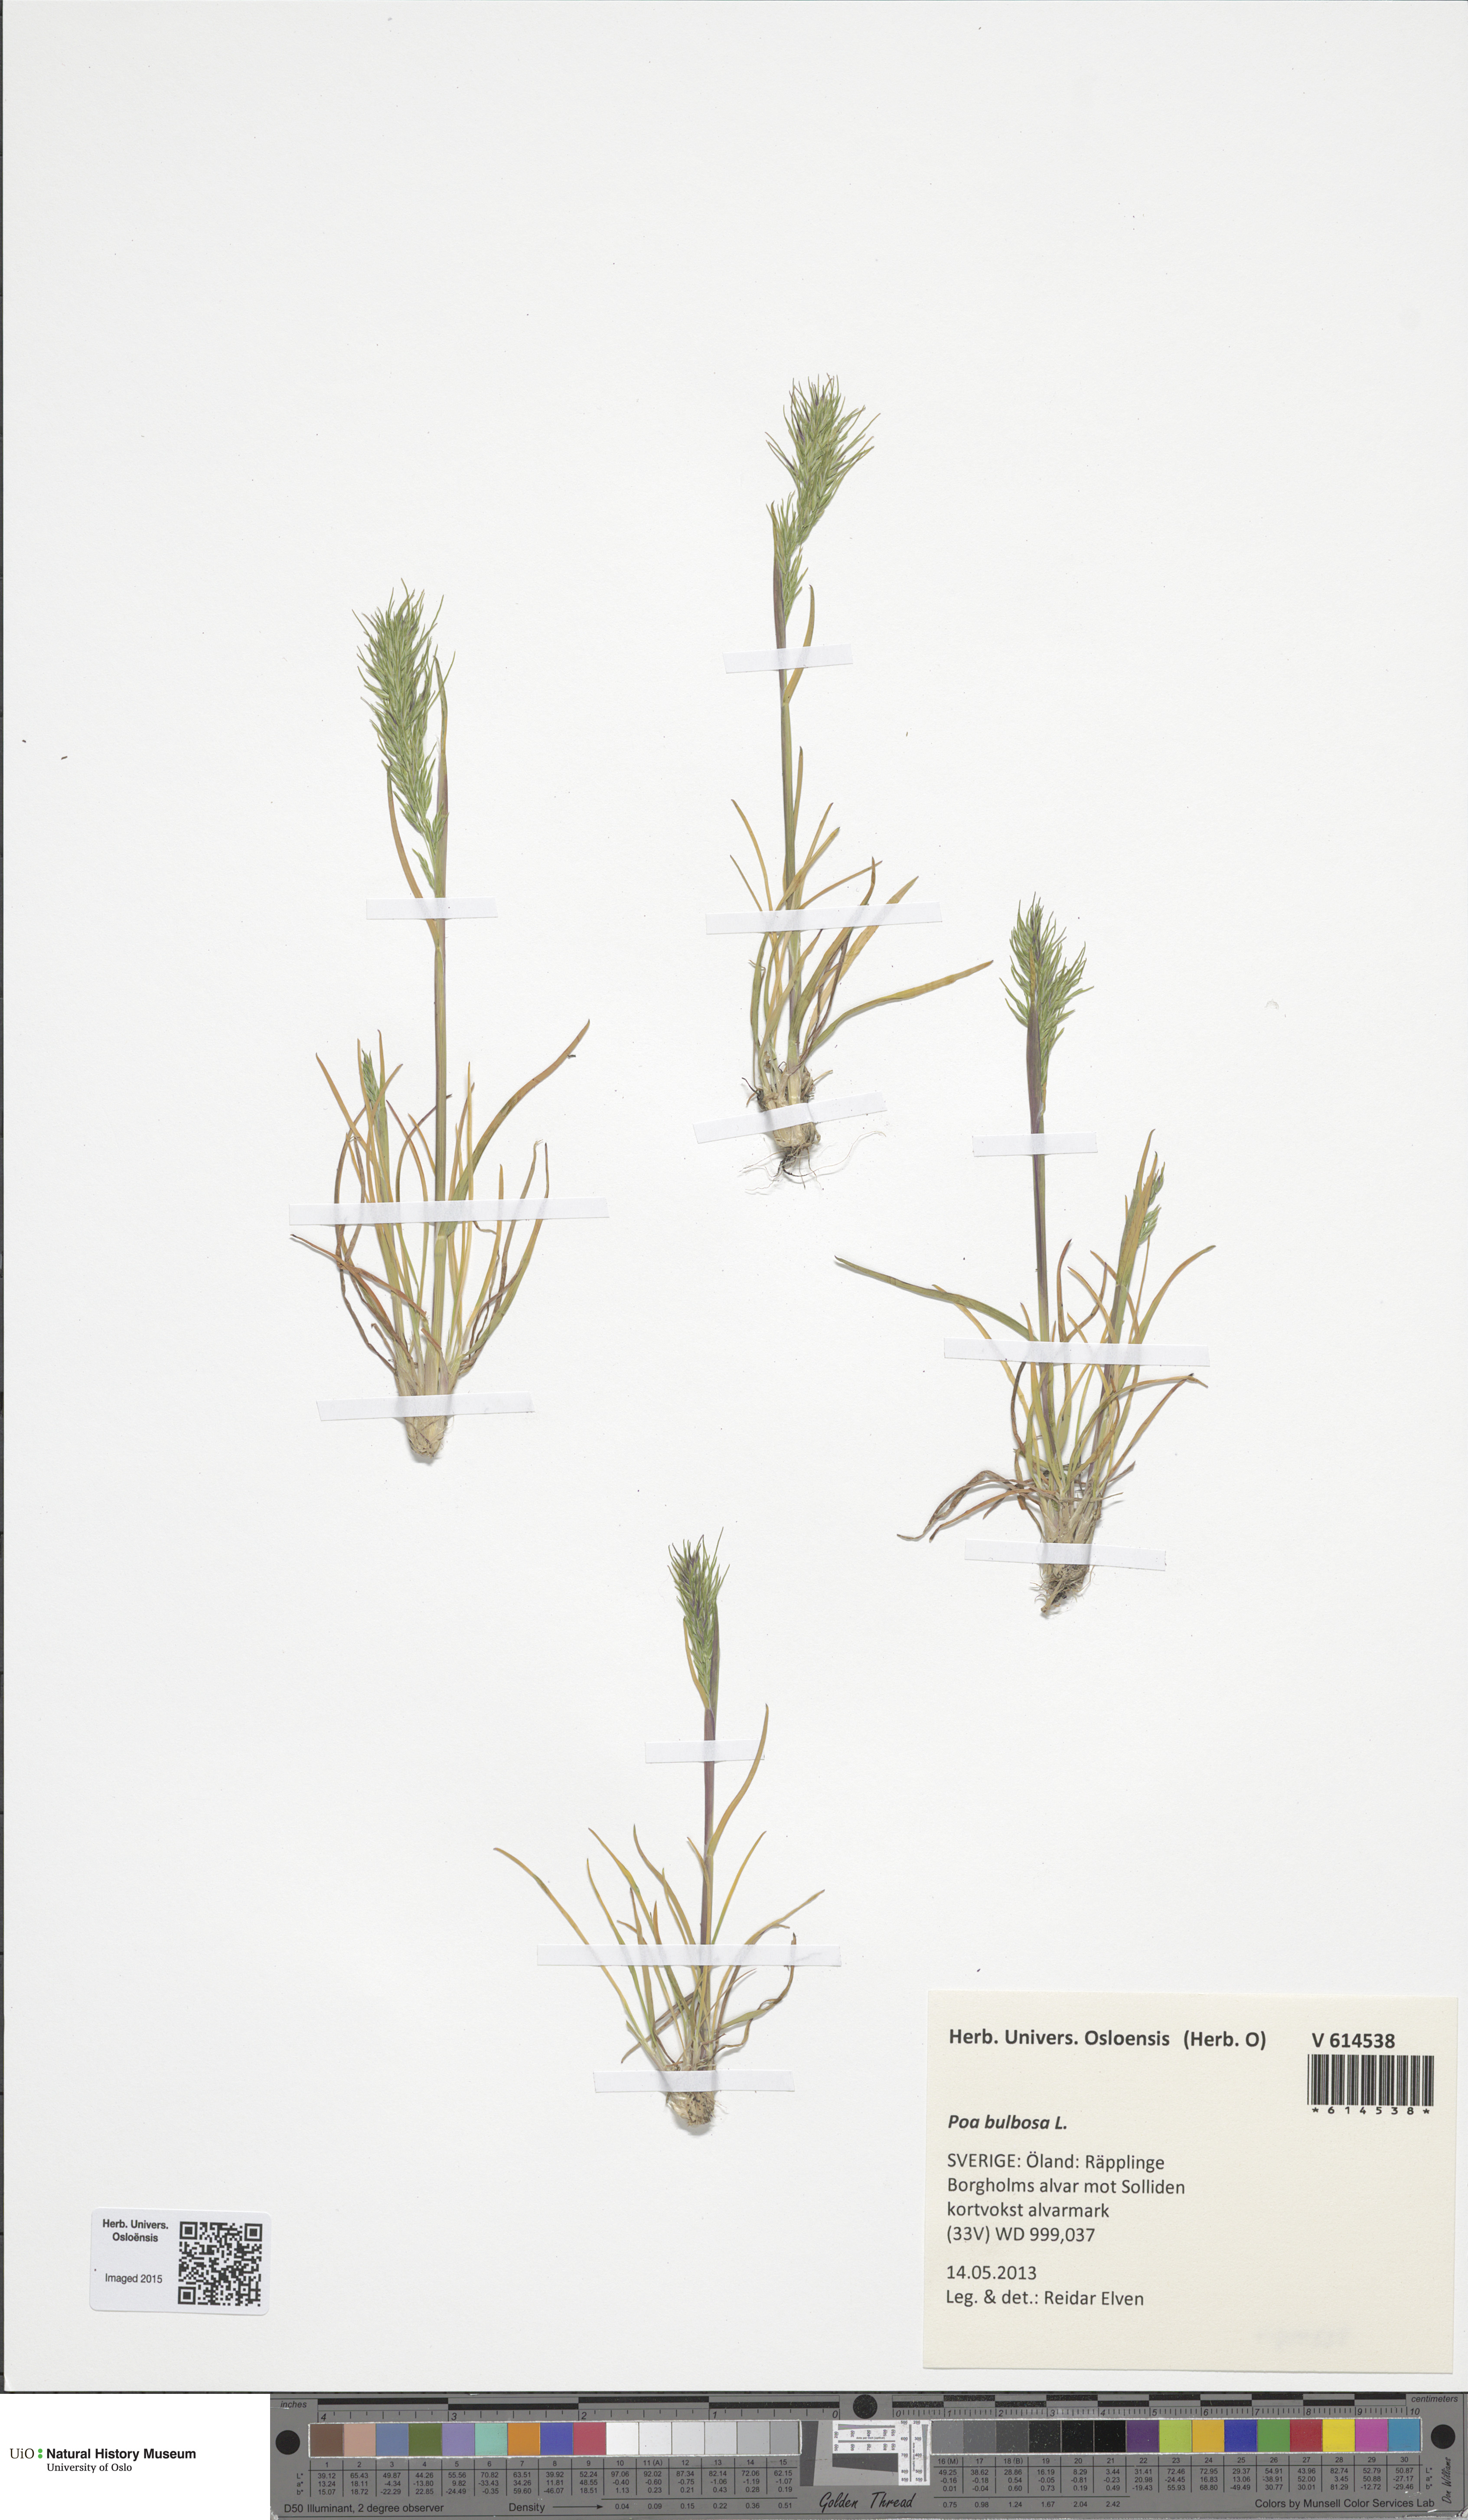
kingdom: Plantae
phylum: Tracheophyta
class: Liliopsida
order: Poales
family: Poaceae
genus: Poa
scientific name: Poa bulbosa
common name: Bulbous bluegrass
